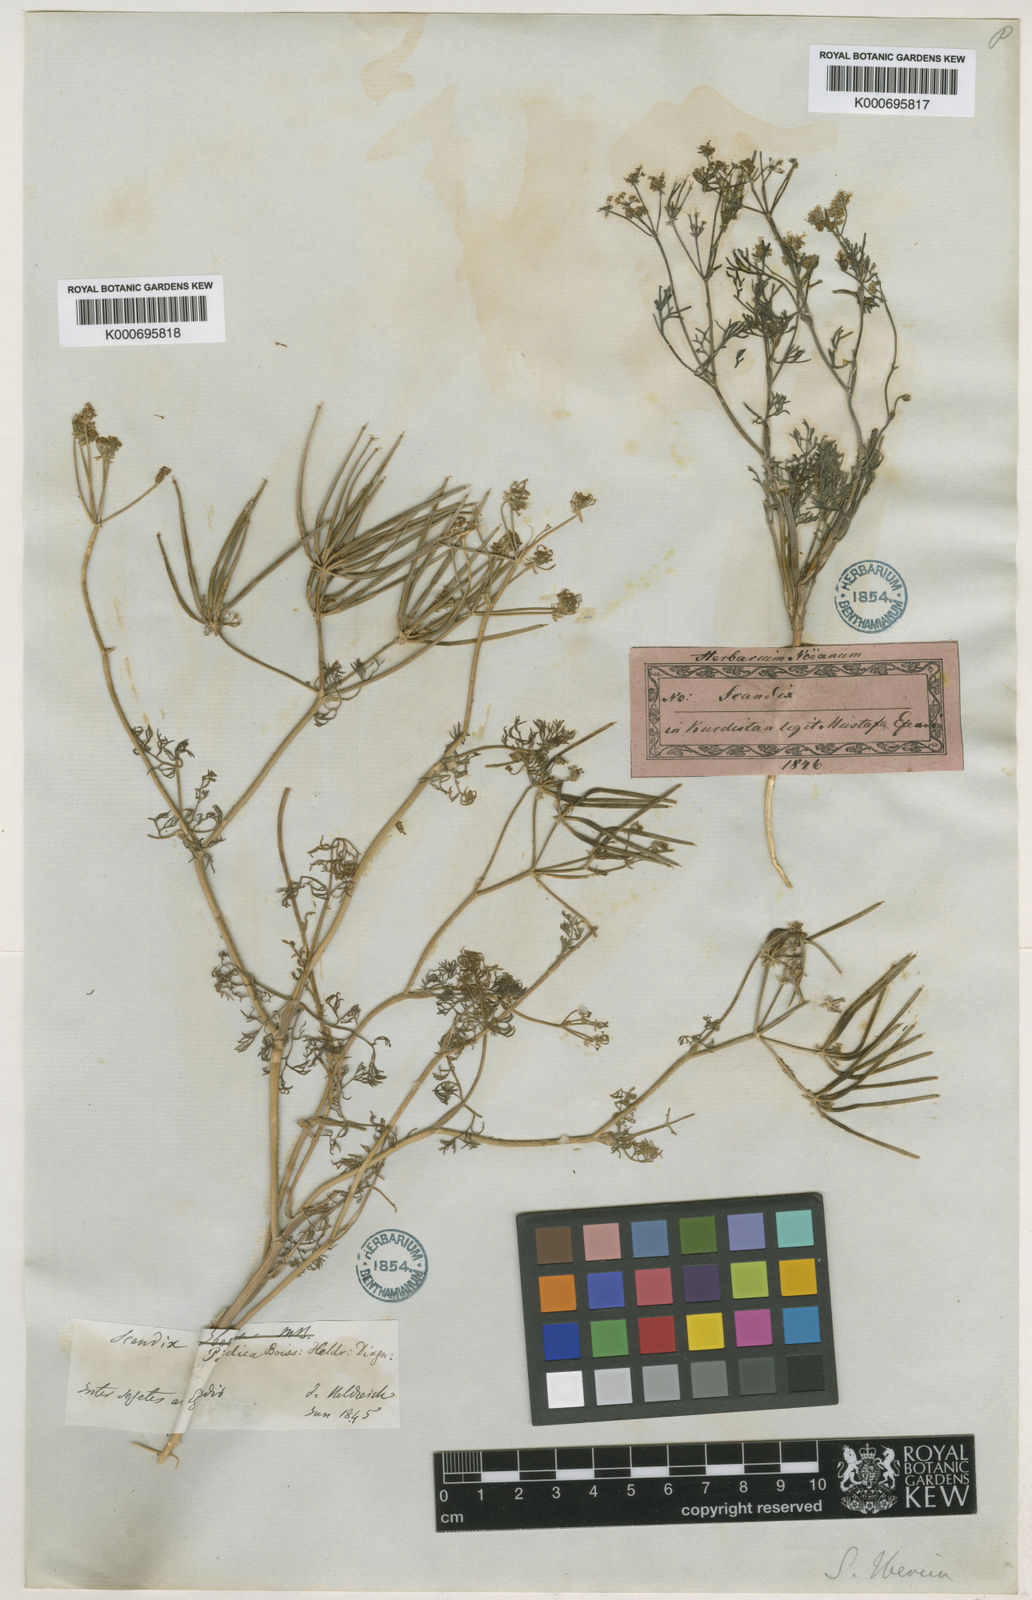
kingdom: Plantae
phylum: Tracheophyta
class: Magnoliopsida
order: Apiales
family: Apiaceae
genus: Scandix
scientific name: Scandix
